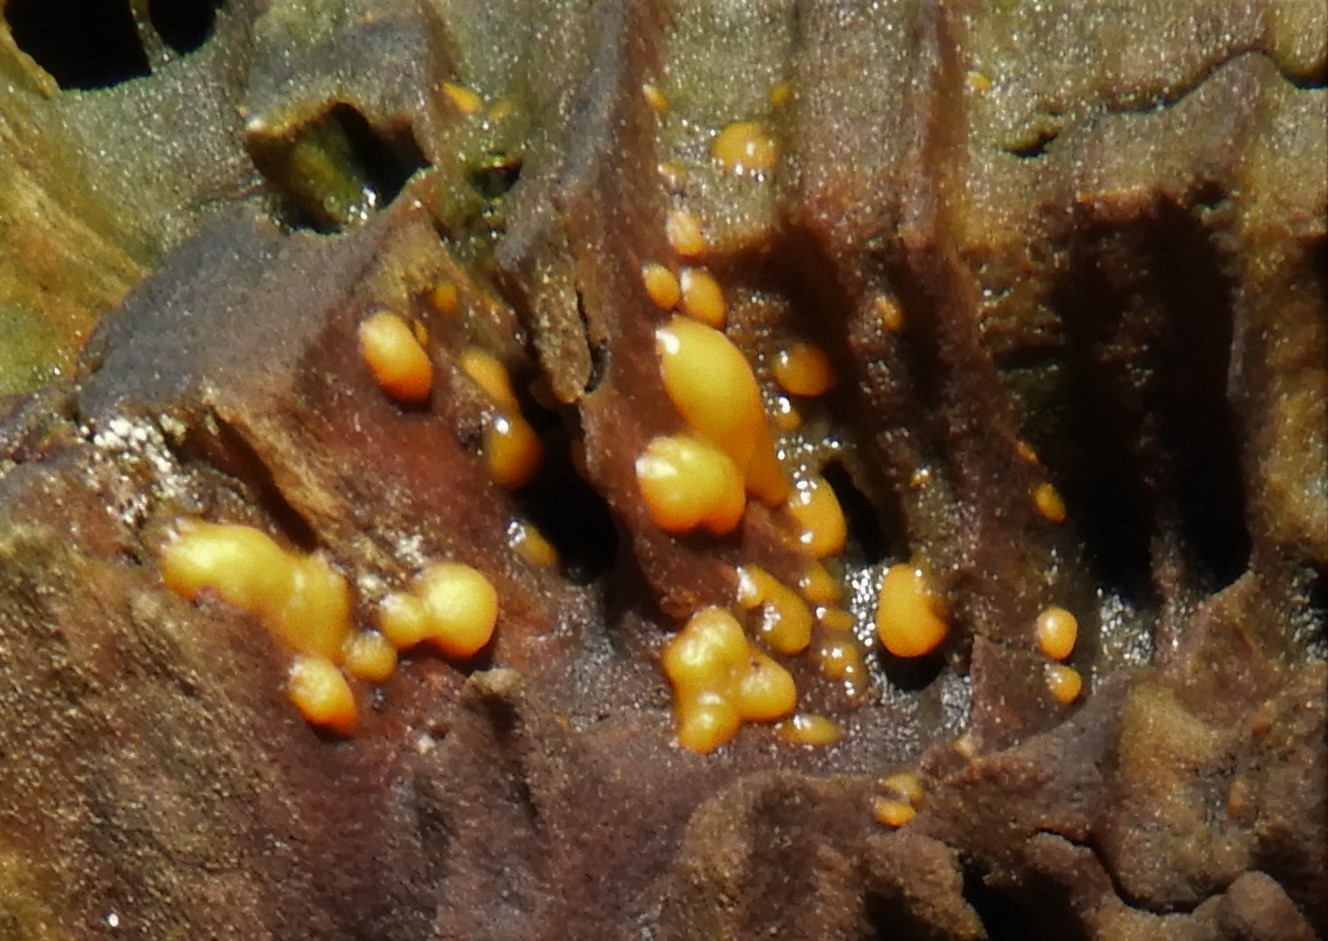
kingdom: Fungi
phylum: Basidiomycota
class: Dacrymycetes
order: Dacrymycetales
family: Dacrymycetaceae
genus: Dacrymyces
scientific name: Dacrymyces stillatus
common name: almindelig tåresvamp
